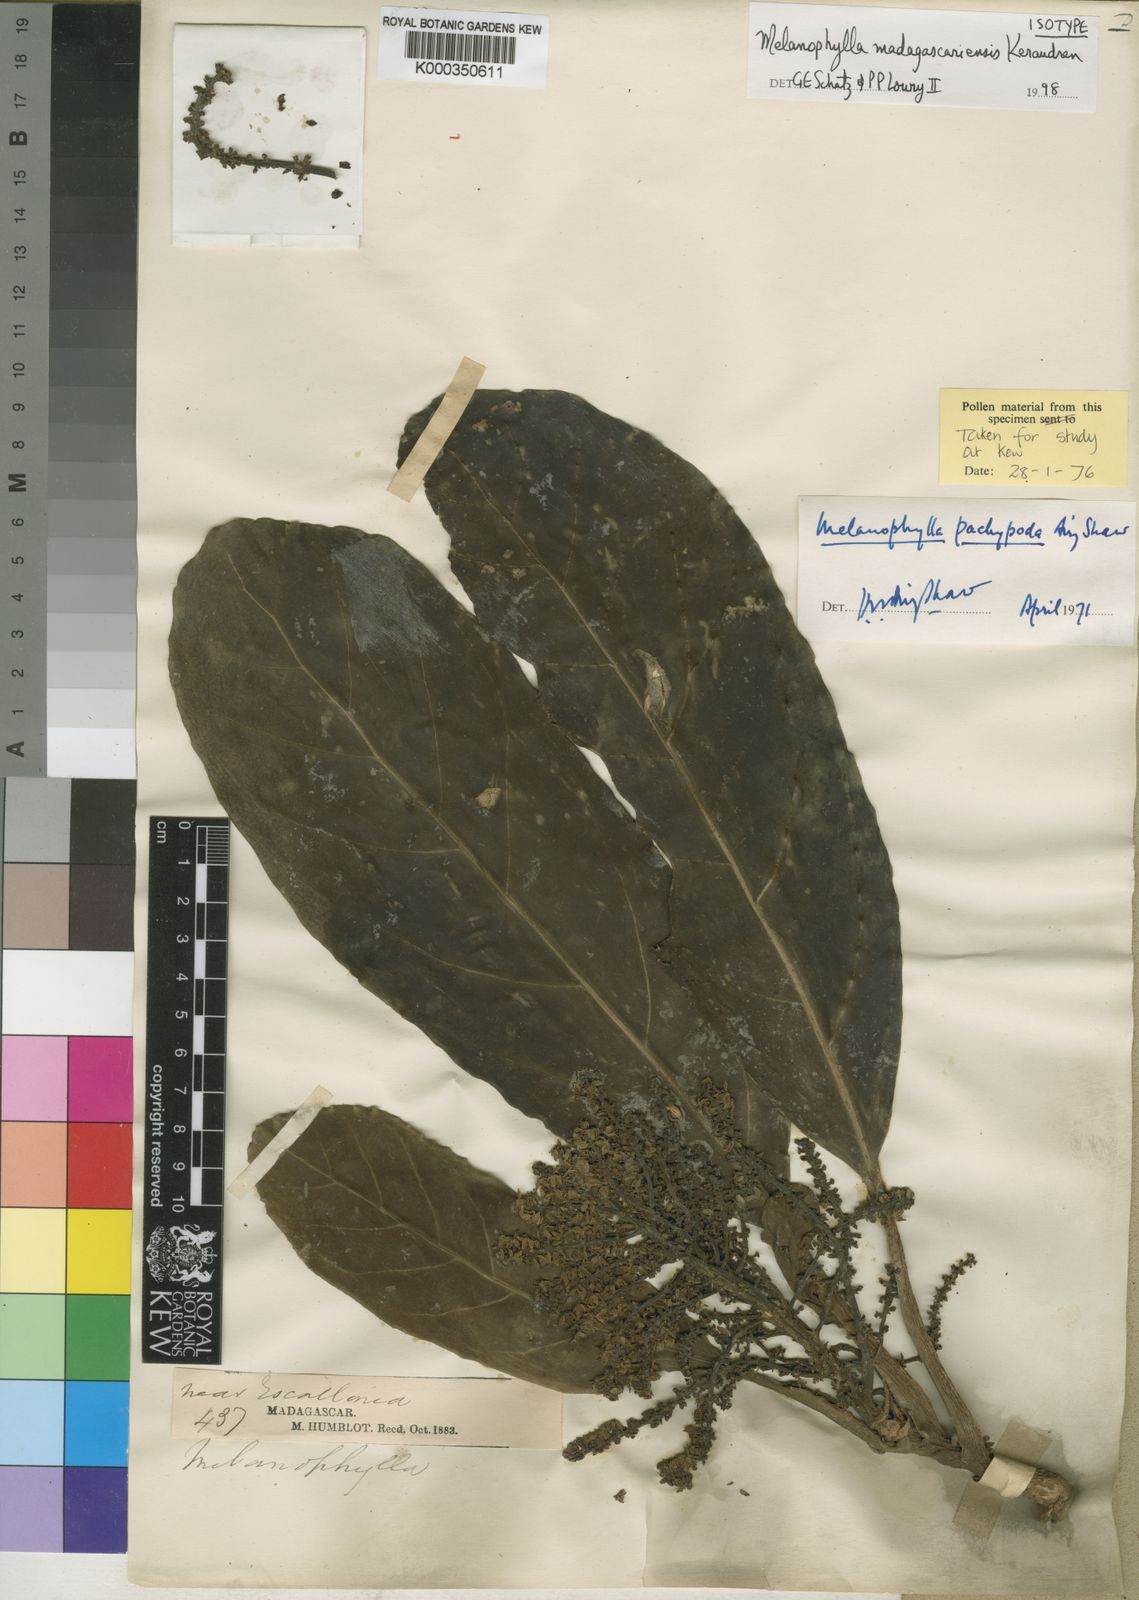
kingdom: Plantae
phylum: Tracheophyta
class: Magnoliopsida
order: Apiales
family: Torricelliaceae
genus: Melanophylla
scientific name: Melanophylla madagascariensis
